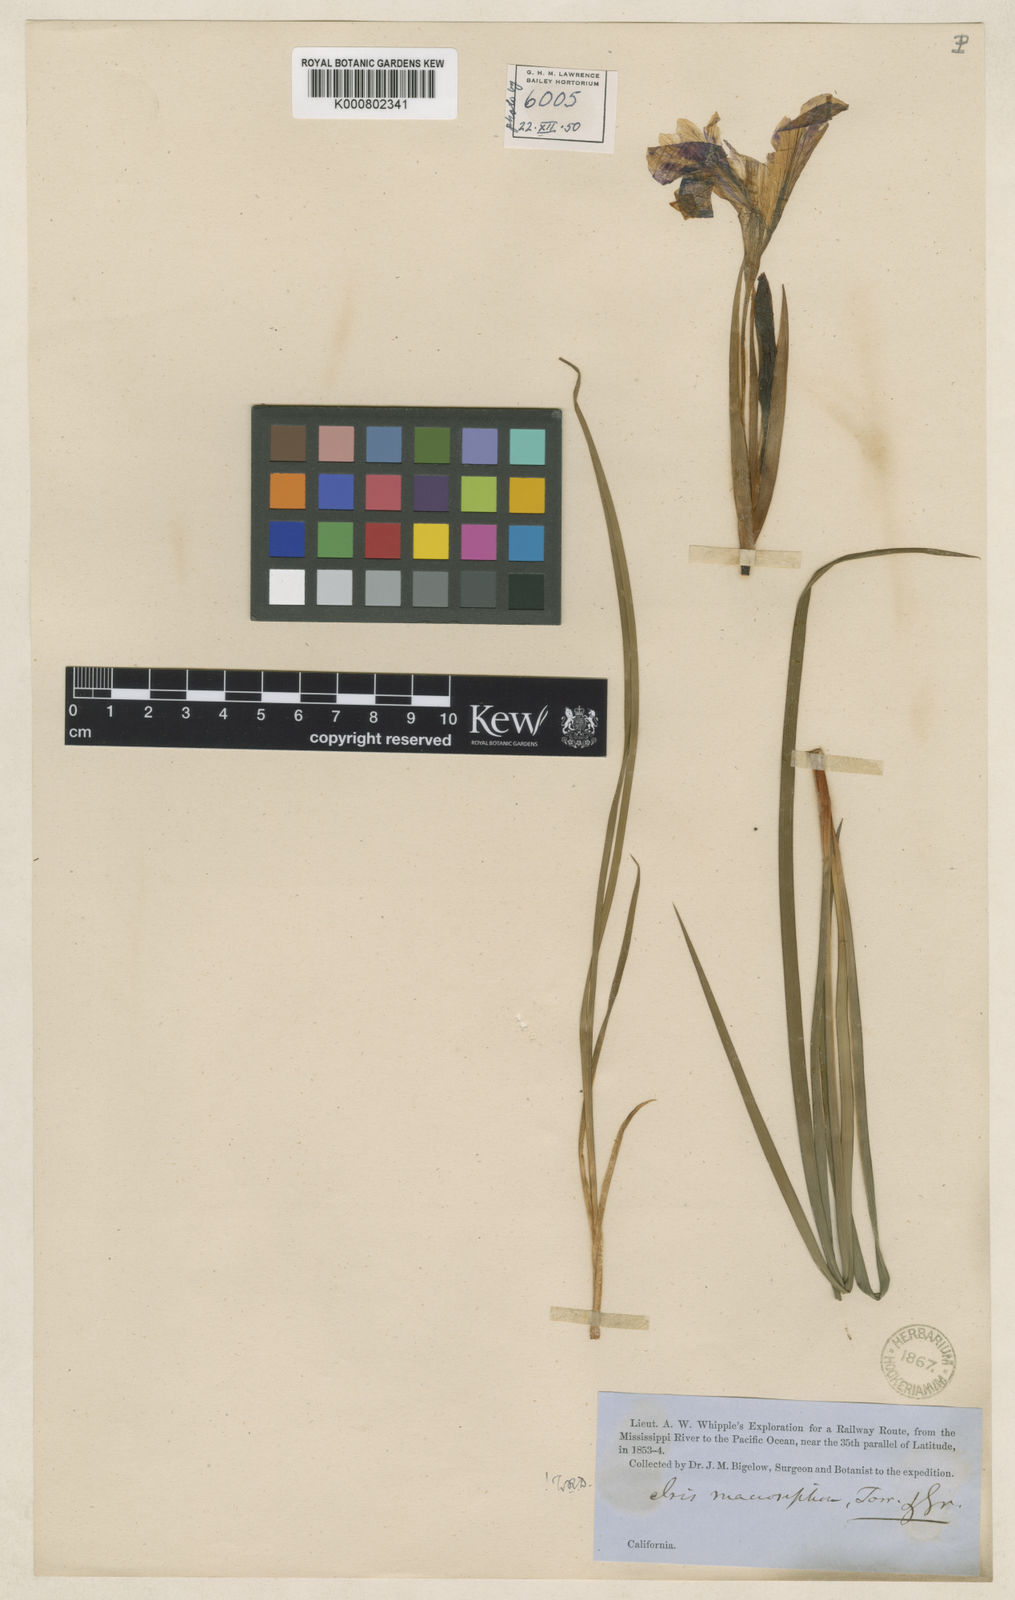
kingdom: Plantae
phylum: Tracheophyta
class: Liliopsida
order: Asparagales
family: Iridaceae
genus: Iris
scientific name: Iris macrosiphon
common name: Ground iris
